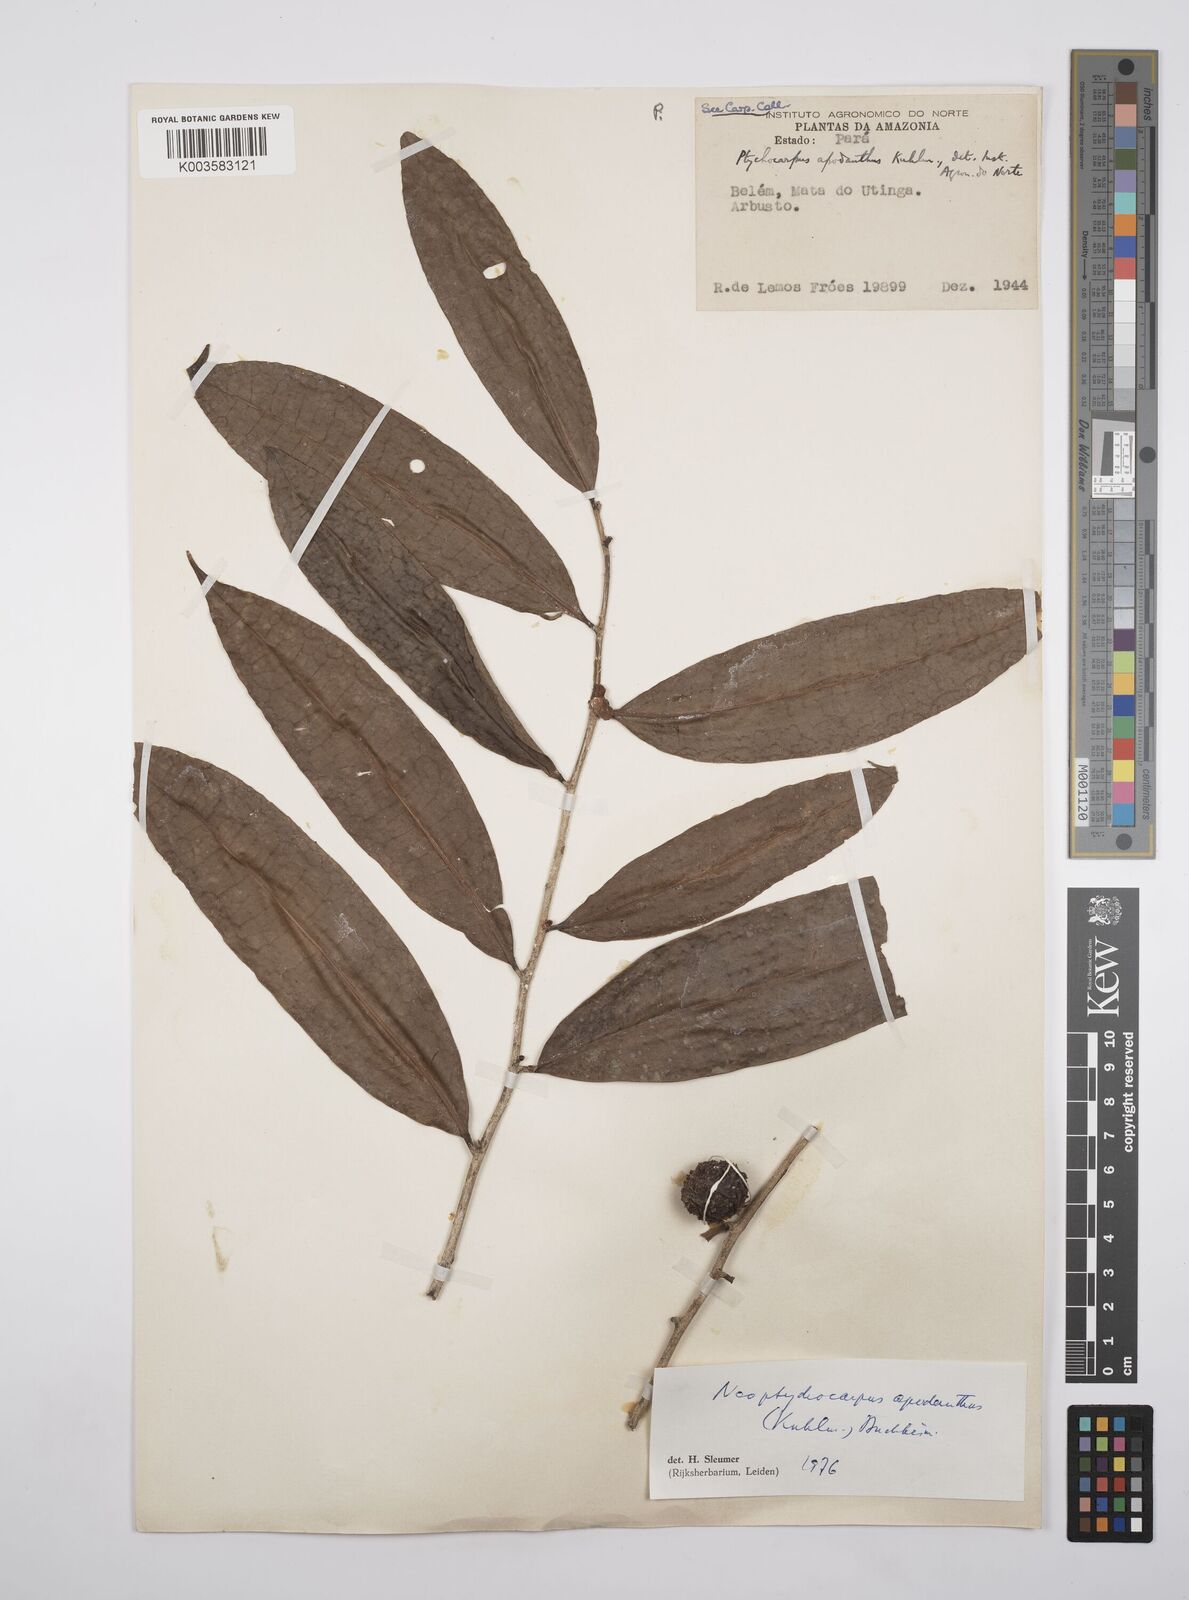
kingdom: Plantae
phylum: Tracheophyta
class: Magnoliopsida
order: Malpighiales
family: Salicaceae
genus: Casearia
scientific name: Casearia apodantha
